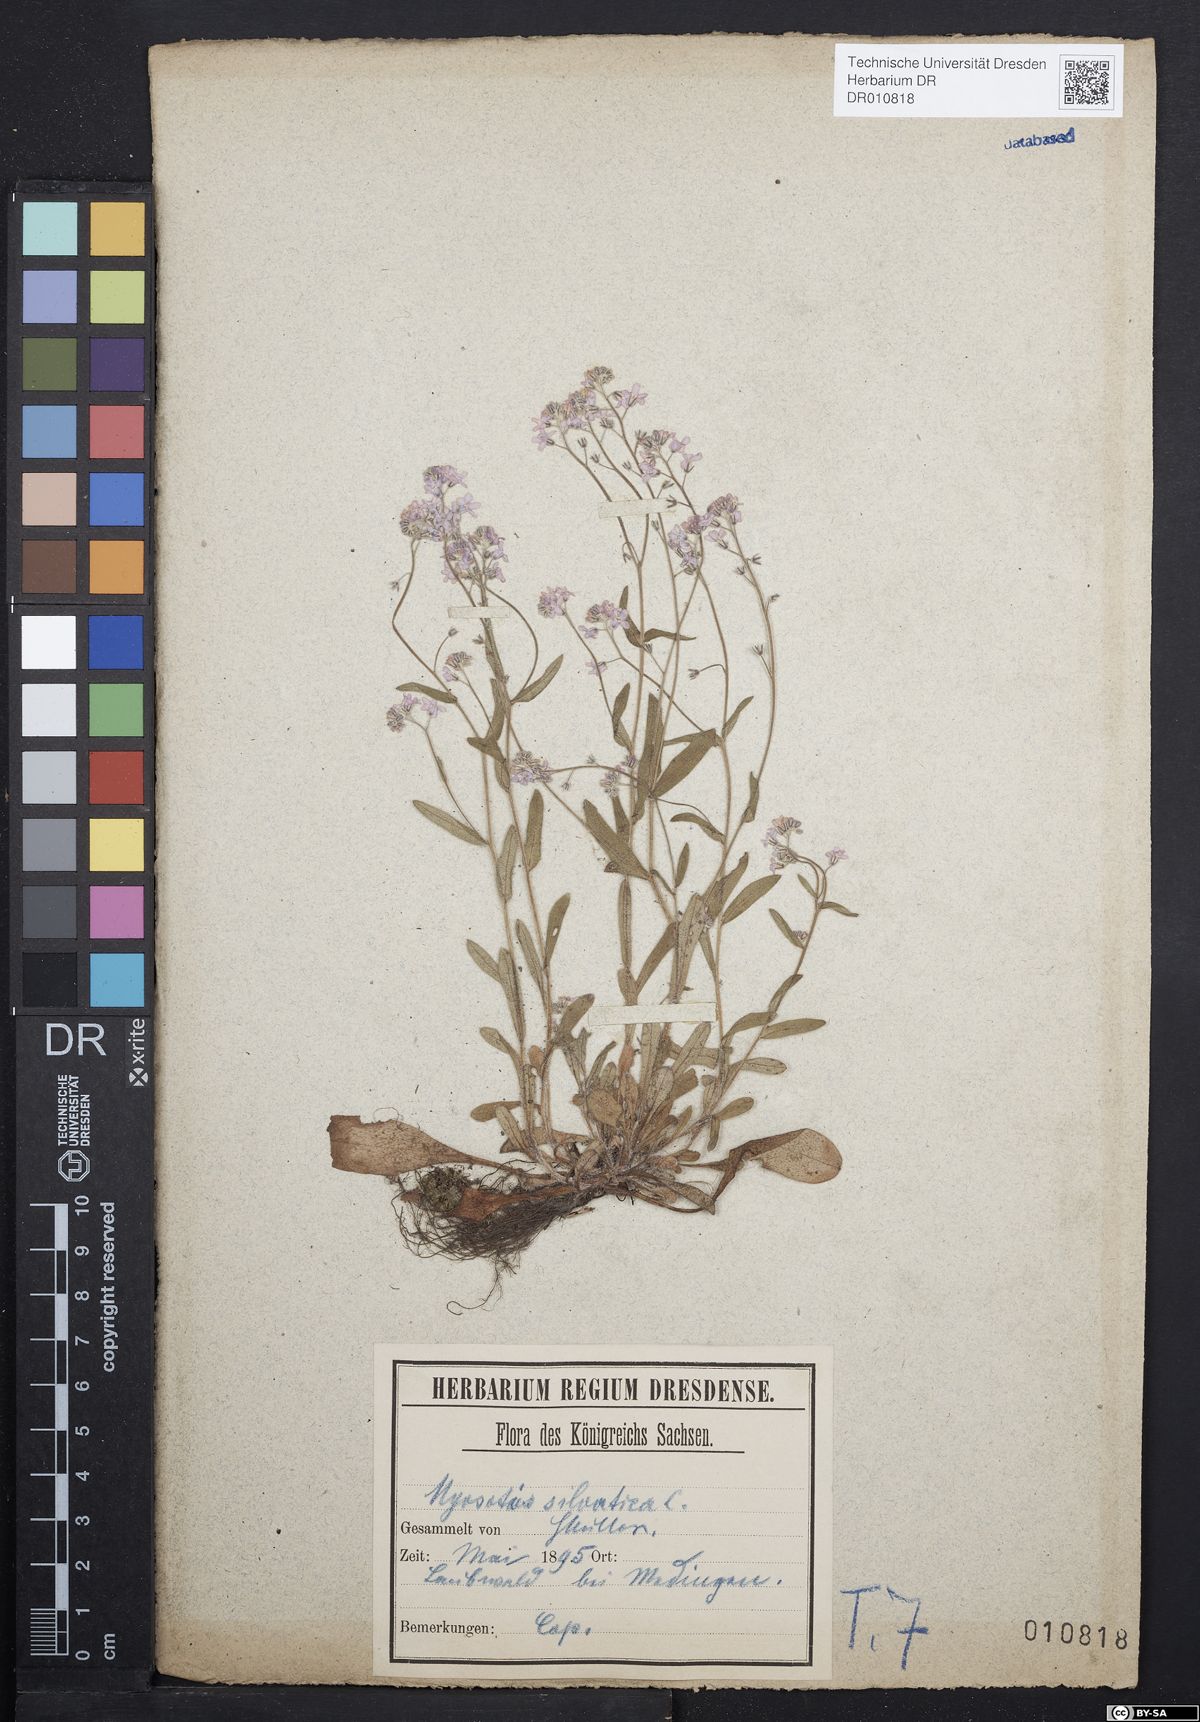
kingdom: Plantae
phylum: Tracheophyta
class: Magnoliopsida
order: Boraginales
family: Boraginaceae
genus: Myosotis
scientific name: Myosotis sylvatica
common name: Wood forget-me-not
